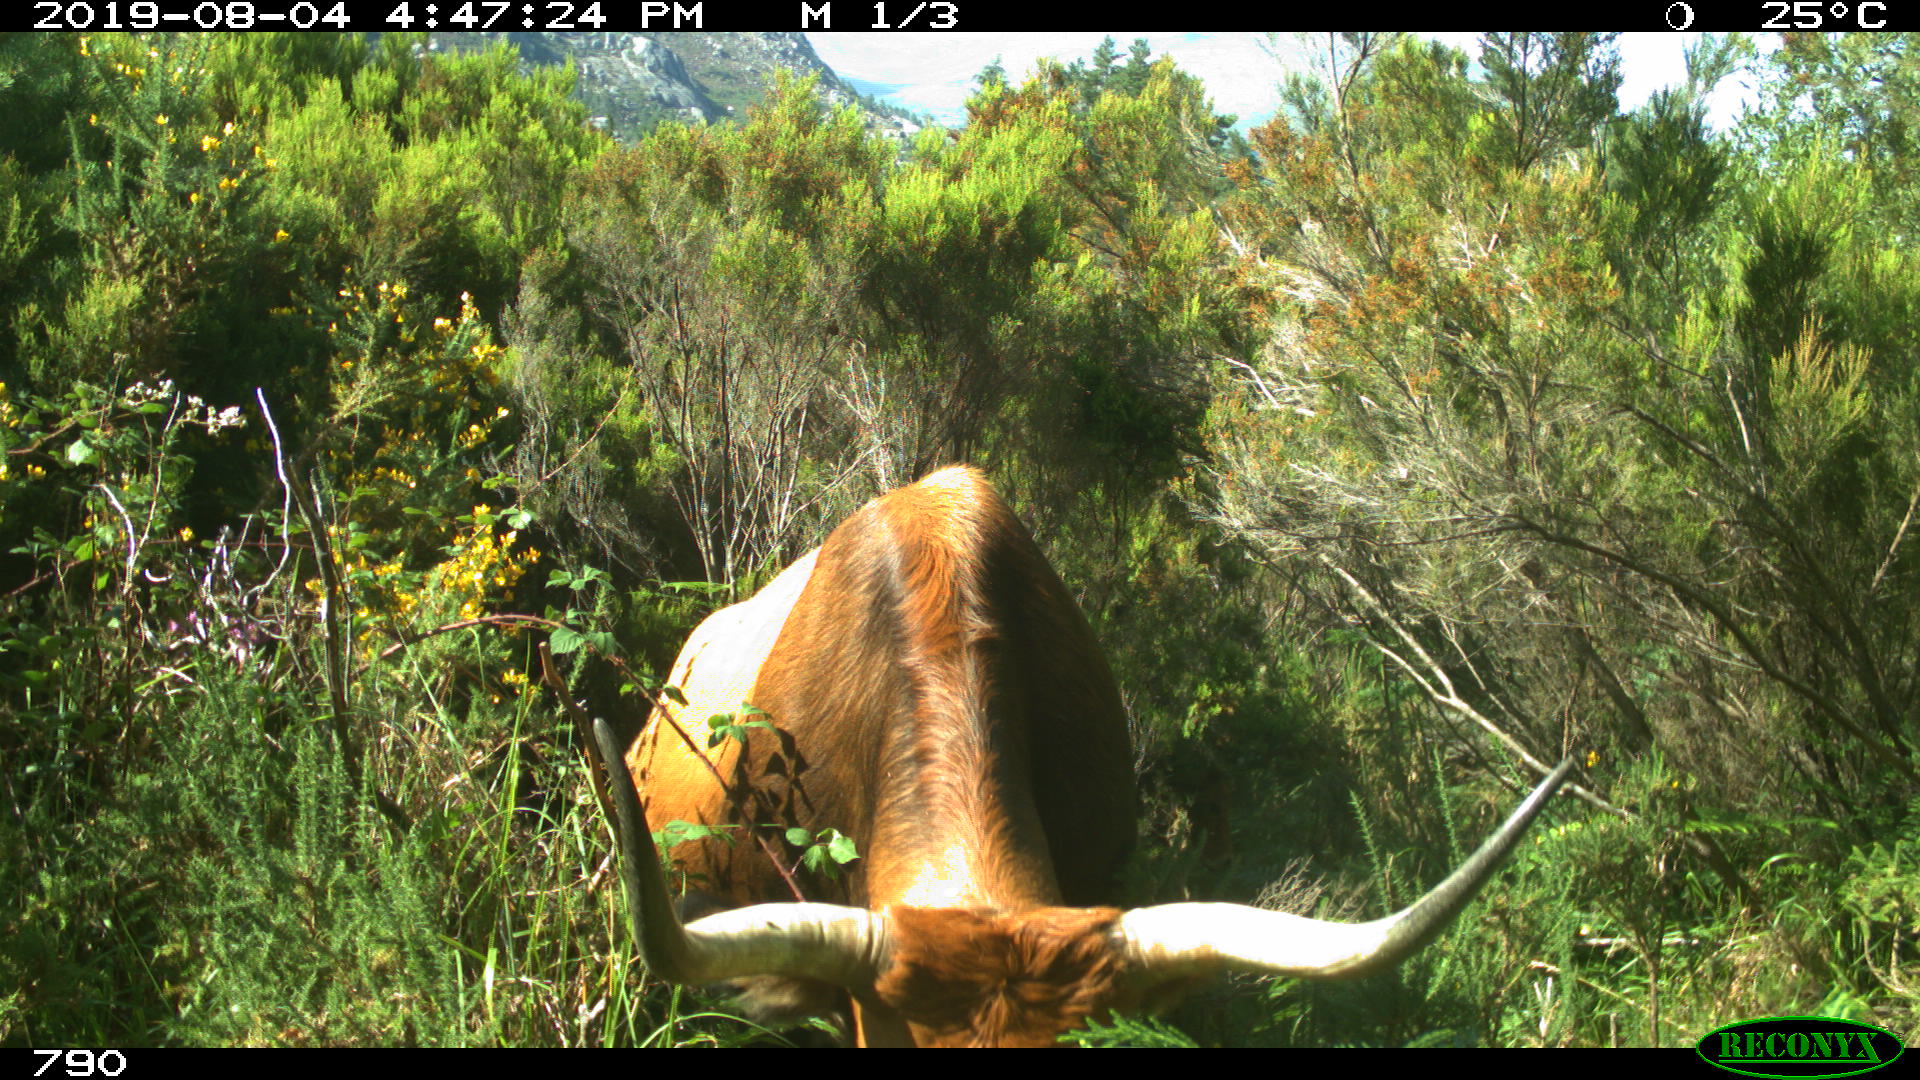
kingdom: Animalia
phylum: Chordata
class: Mammalia
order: Artiodactyla
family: Bovidae
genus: Bos
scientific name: Bos taurus
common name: Domesticated cattle
